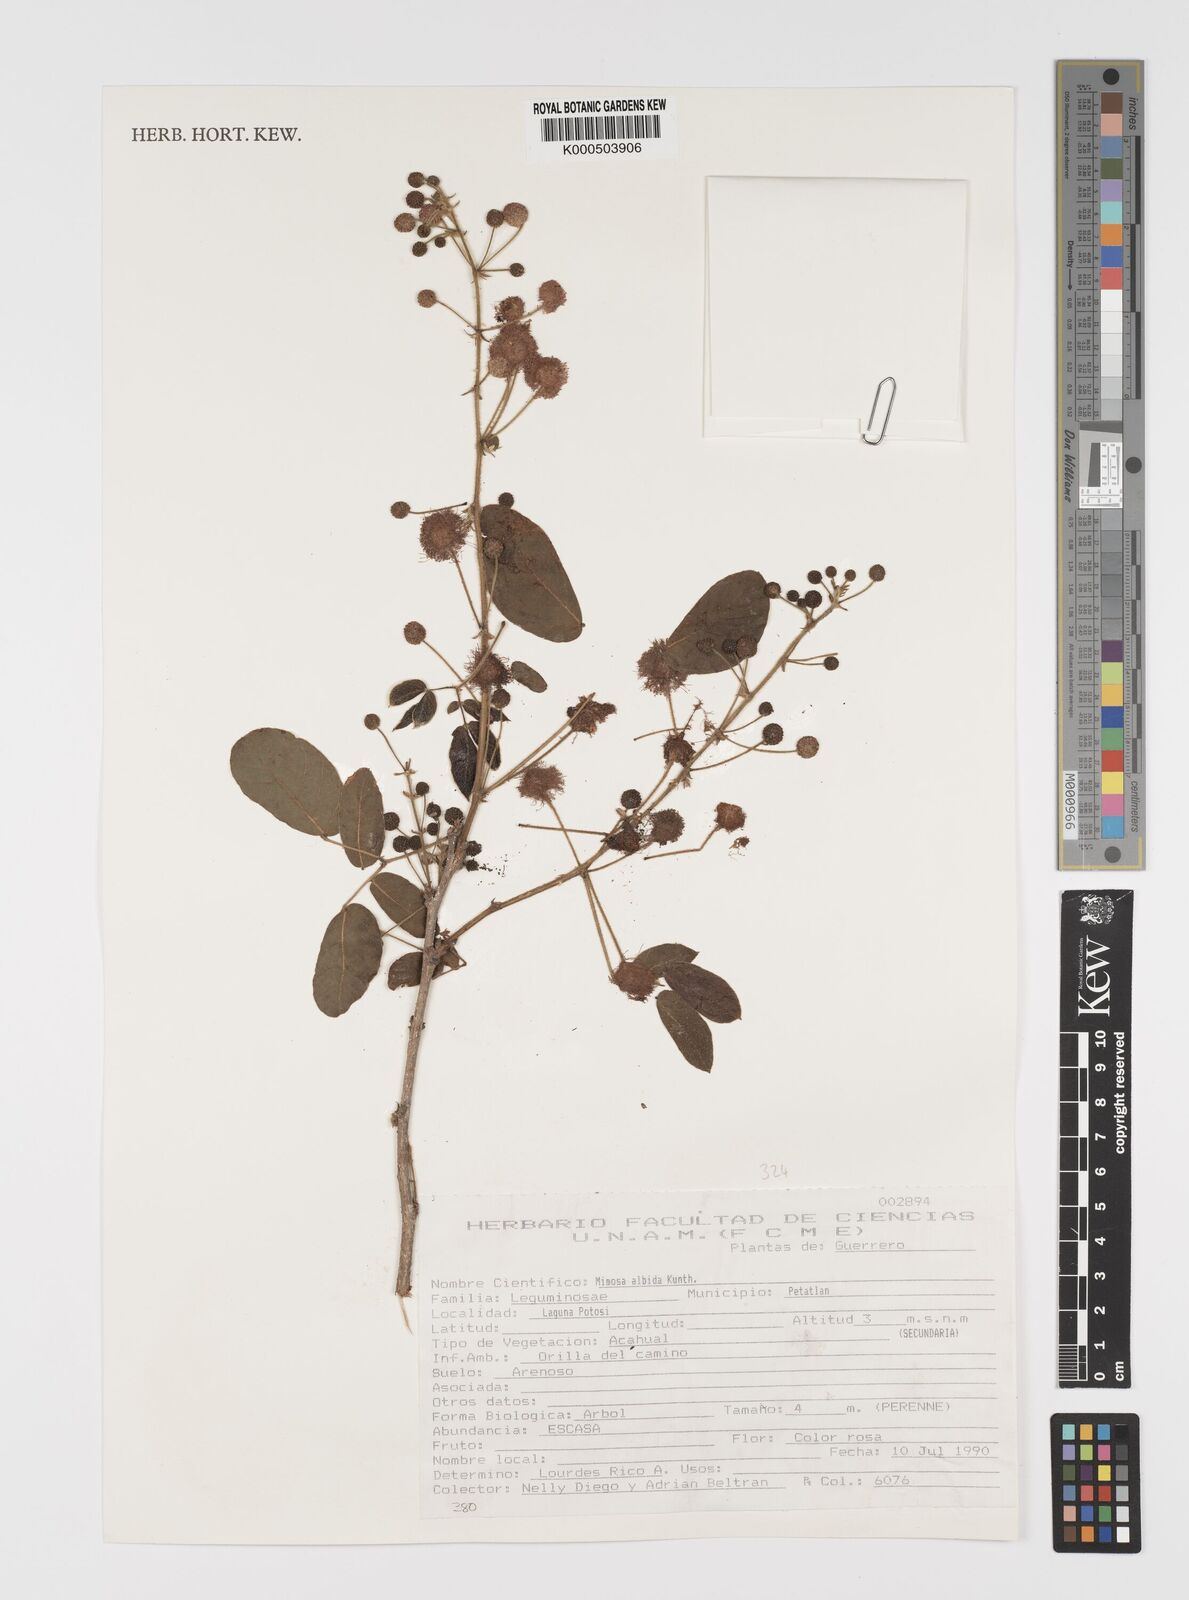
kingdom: Plantae
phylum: Tracheophyta
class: Magnoliopsida
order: Fabales
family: Fabaceae
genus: Mimosa
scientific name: Mimosa albida
